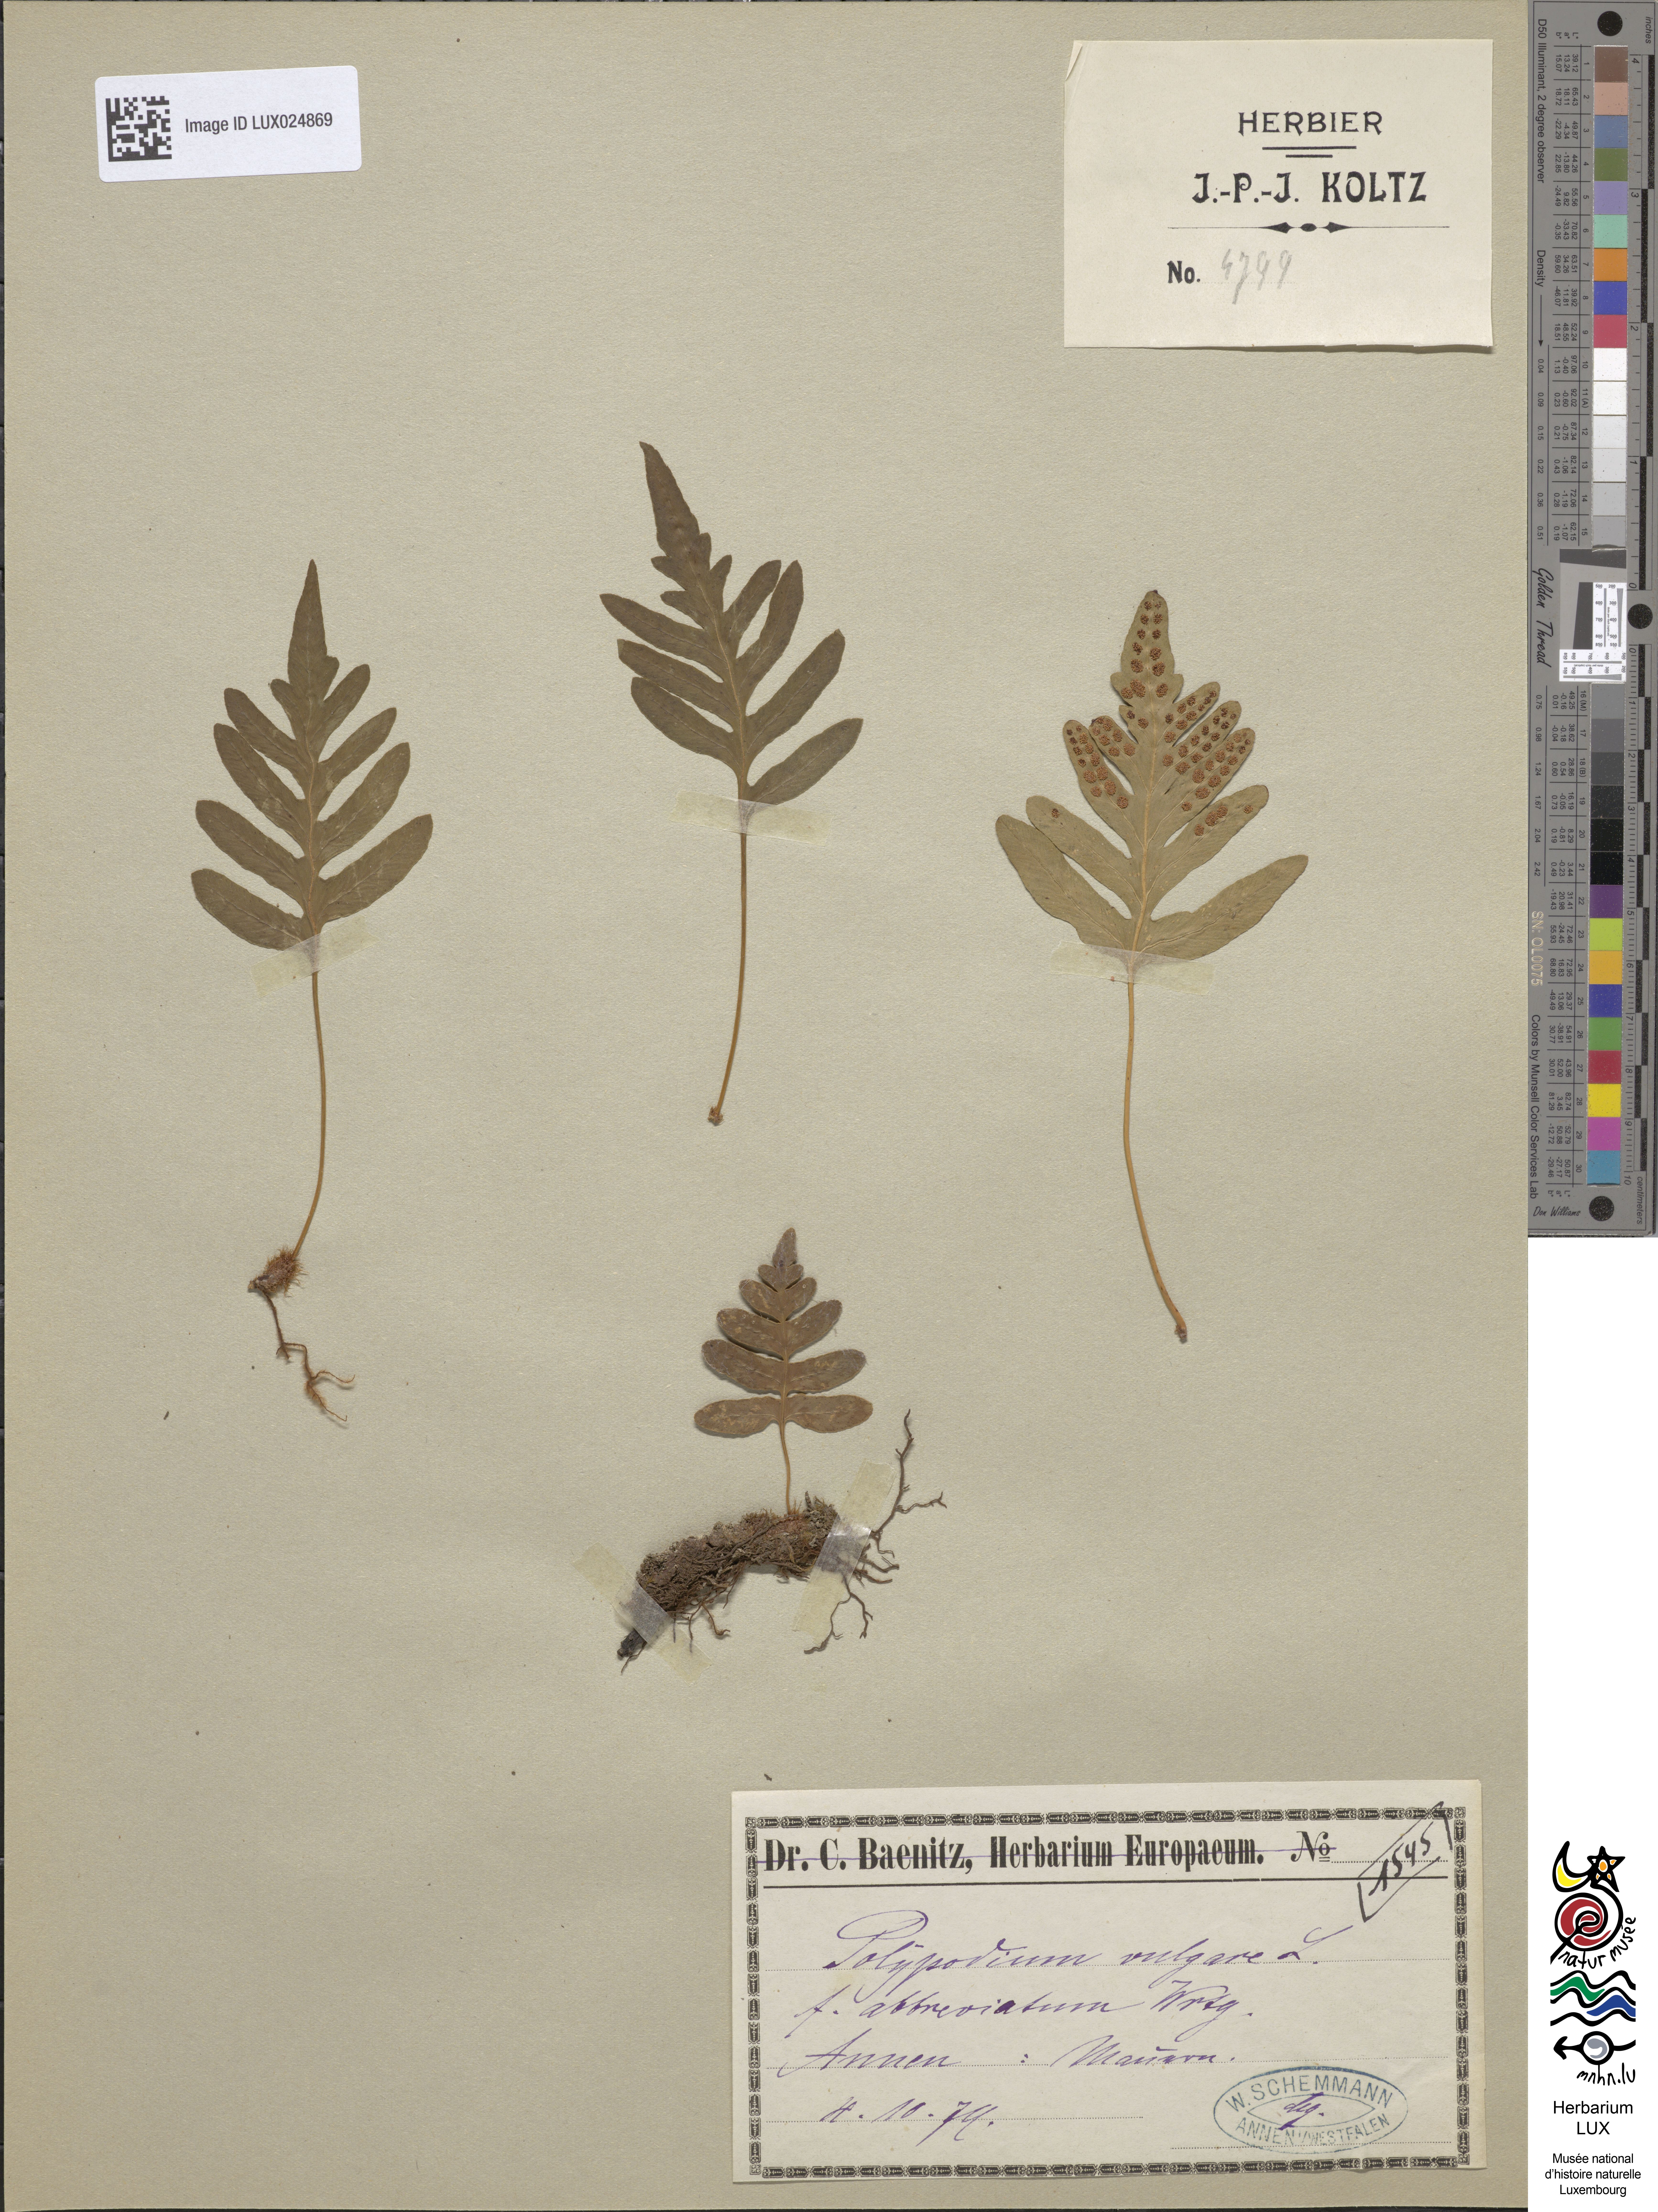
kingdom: Plantae
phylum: Tracheophyta
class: Polypodiopsida
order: Polypodiales
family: Polypodiaceae
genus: Polypodium
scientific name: Polypodium vulgare
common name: Common polypody
